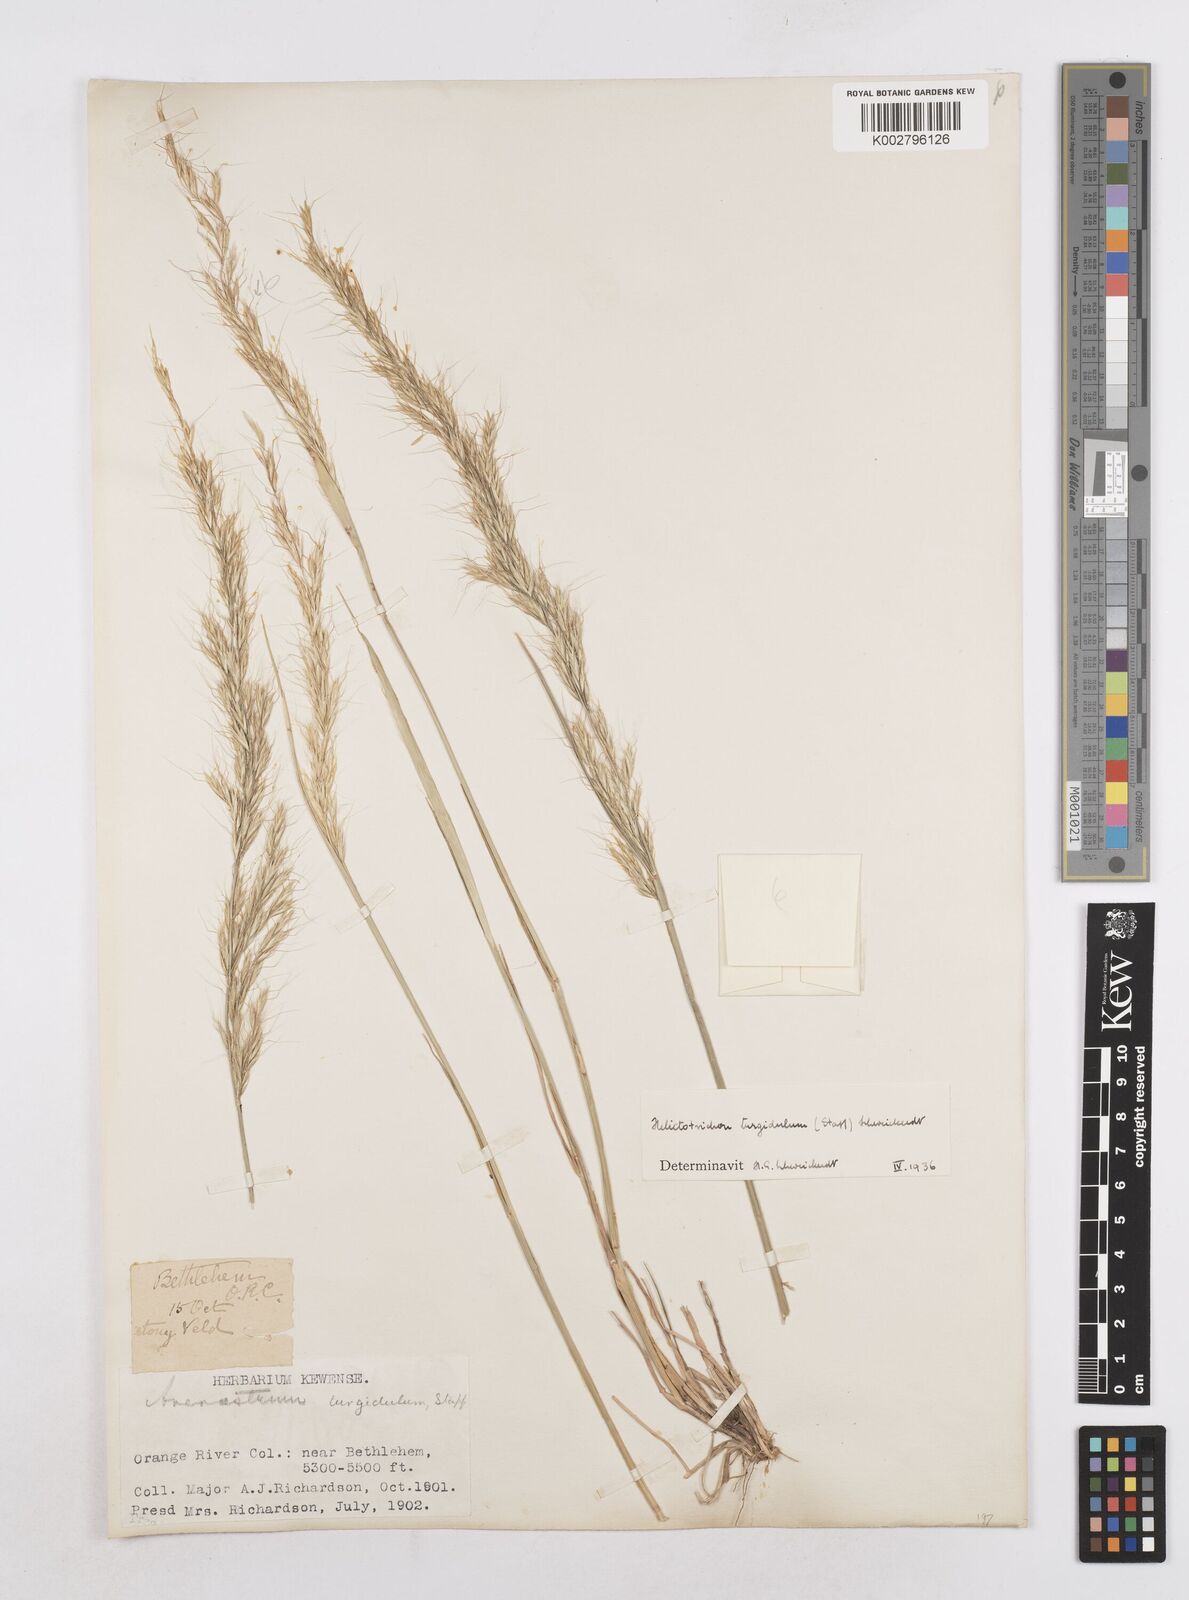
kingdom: Plantae
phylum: Tracheophyta
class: Liliopsida
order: Poales
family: Poaceae
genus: Trisetopsis
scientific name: Trisetopsis imberbis
